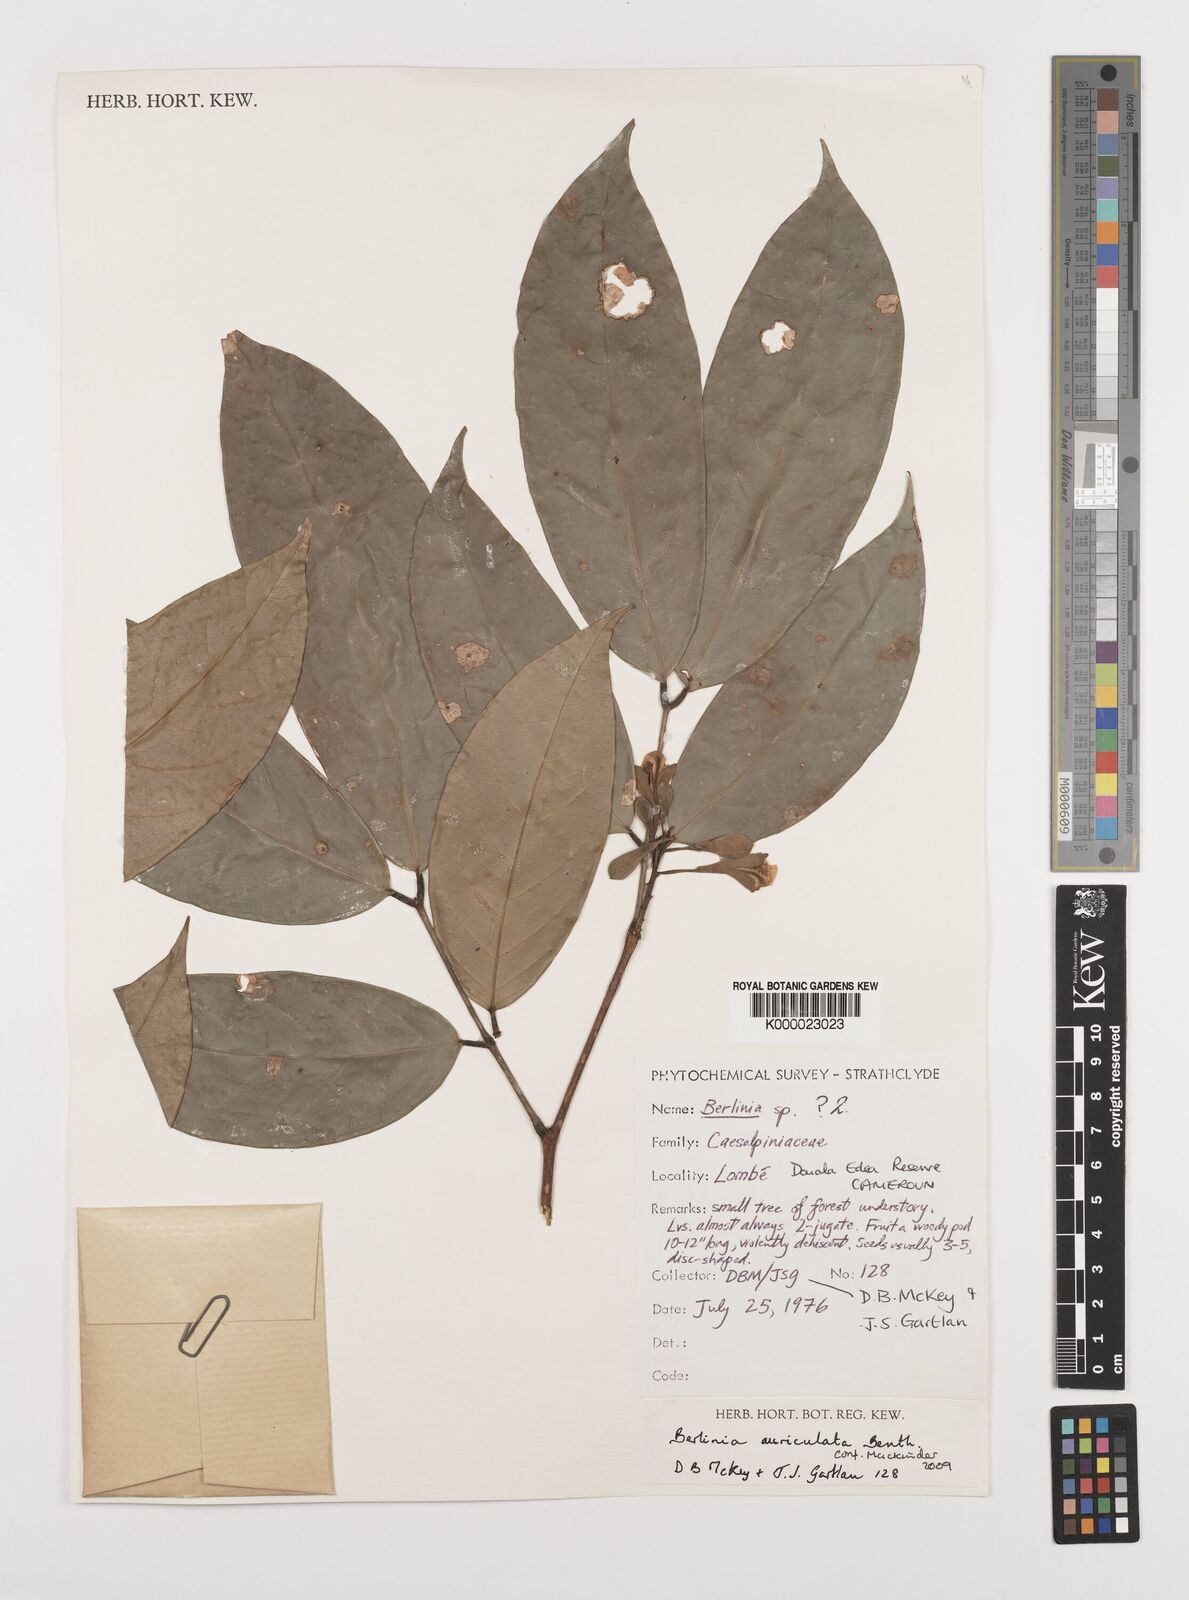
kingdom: Plantae
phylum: Tracheophyta
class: Magnoliopsida
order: Fabales
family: Fabaceae
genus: Berlinia
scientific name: Berlinia auriculata
